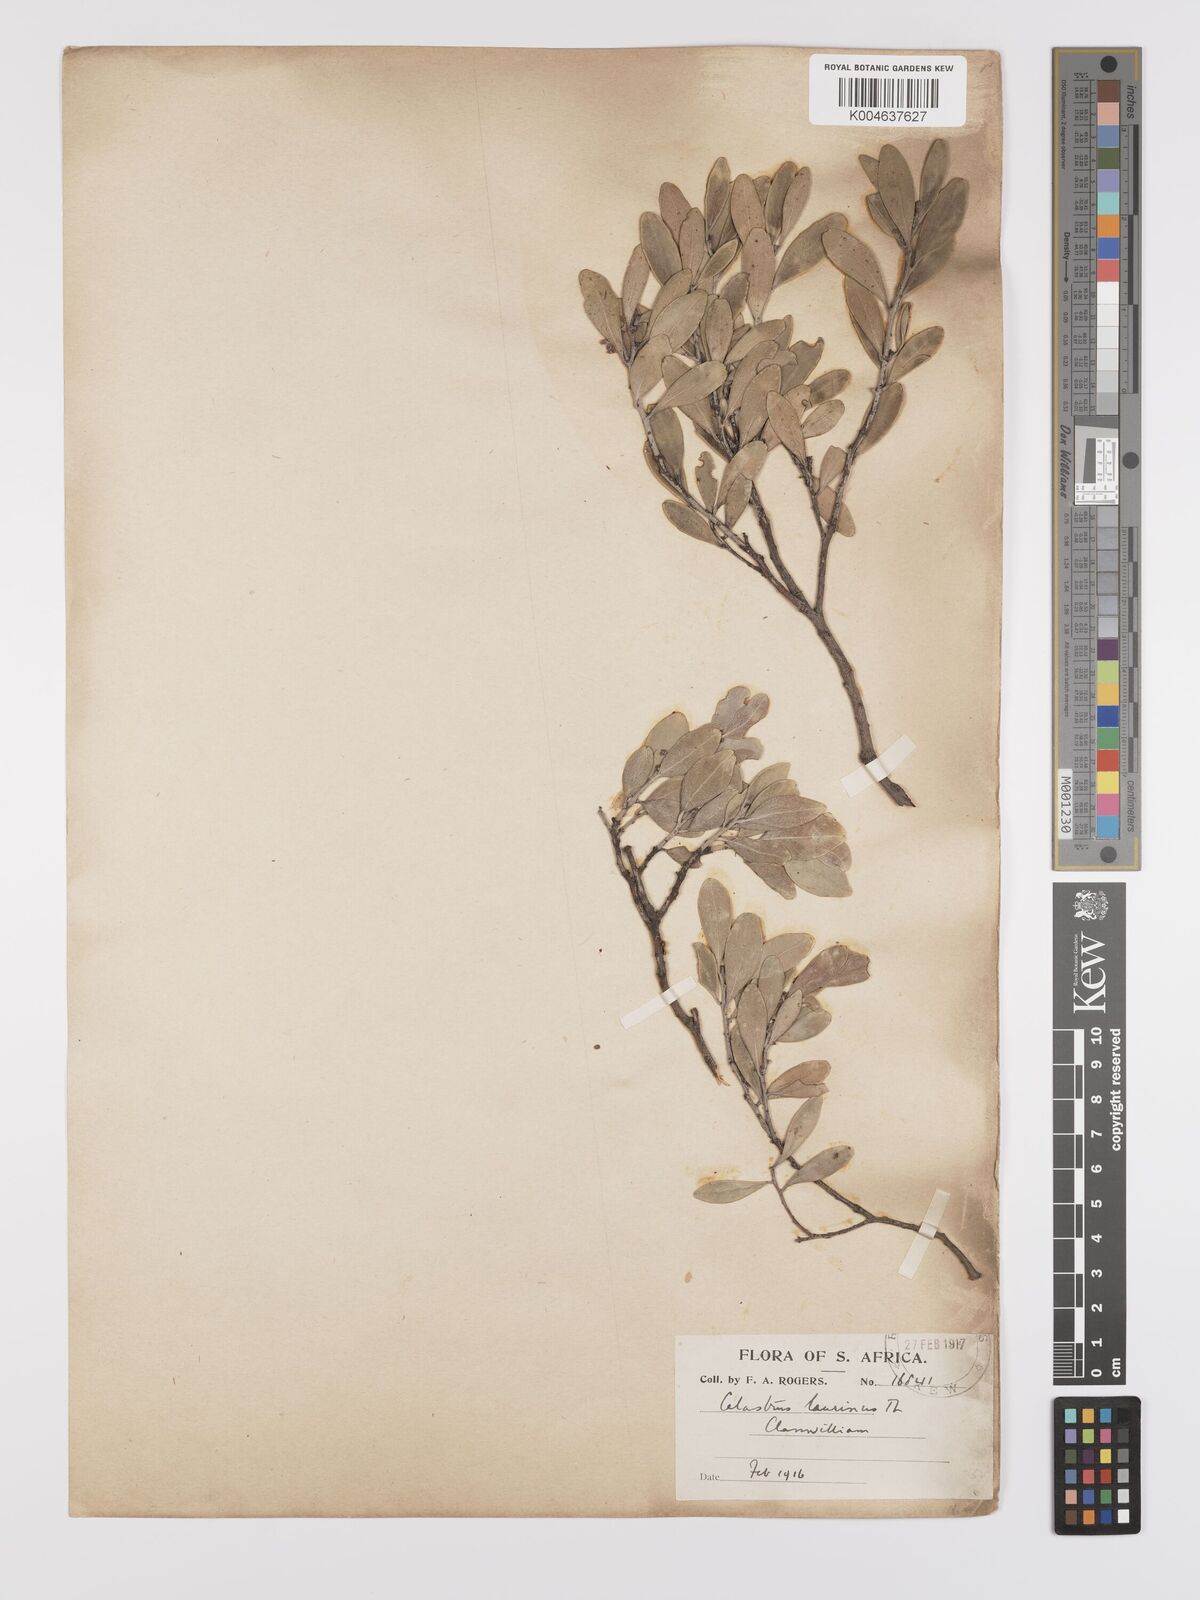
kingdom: Plantae
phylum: Tracheophyta
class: Magnoliopsida
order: Celastrales
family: Celastraceae
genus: Gymnosporia
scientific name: Gymnosporia laurina
